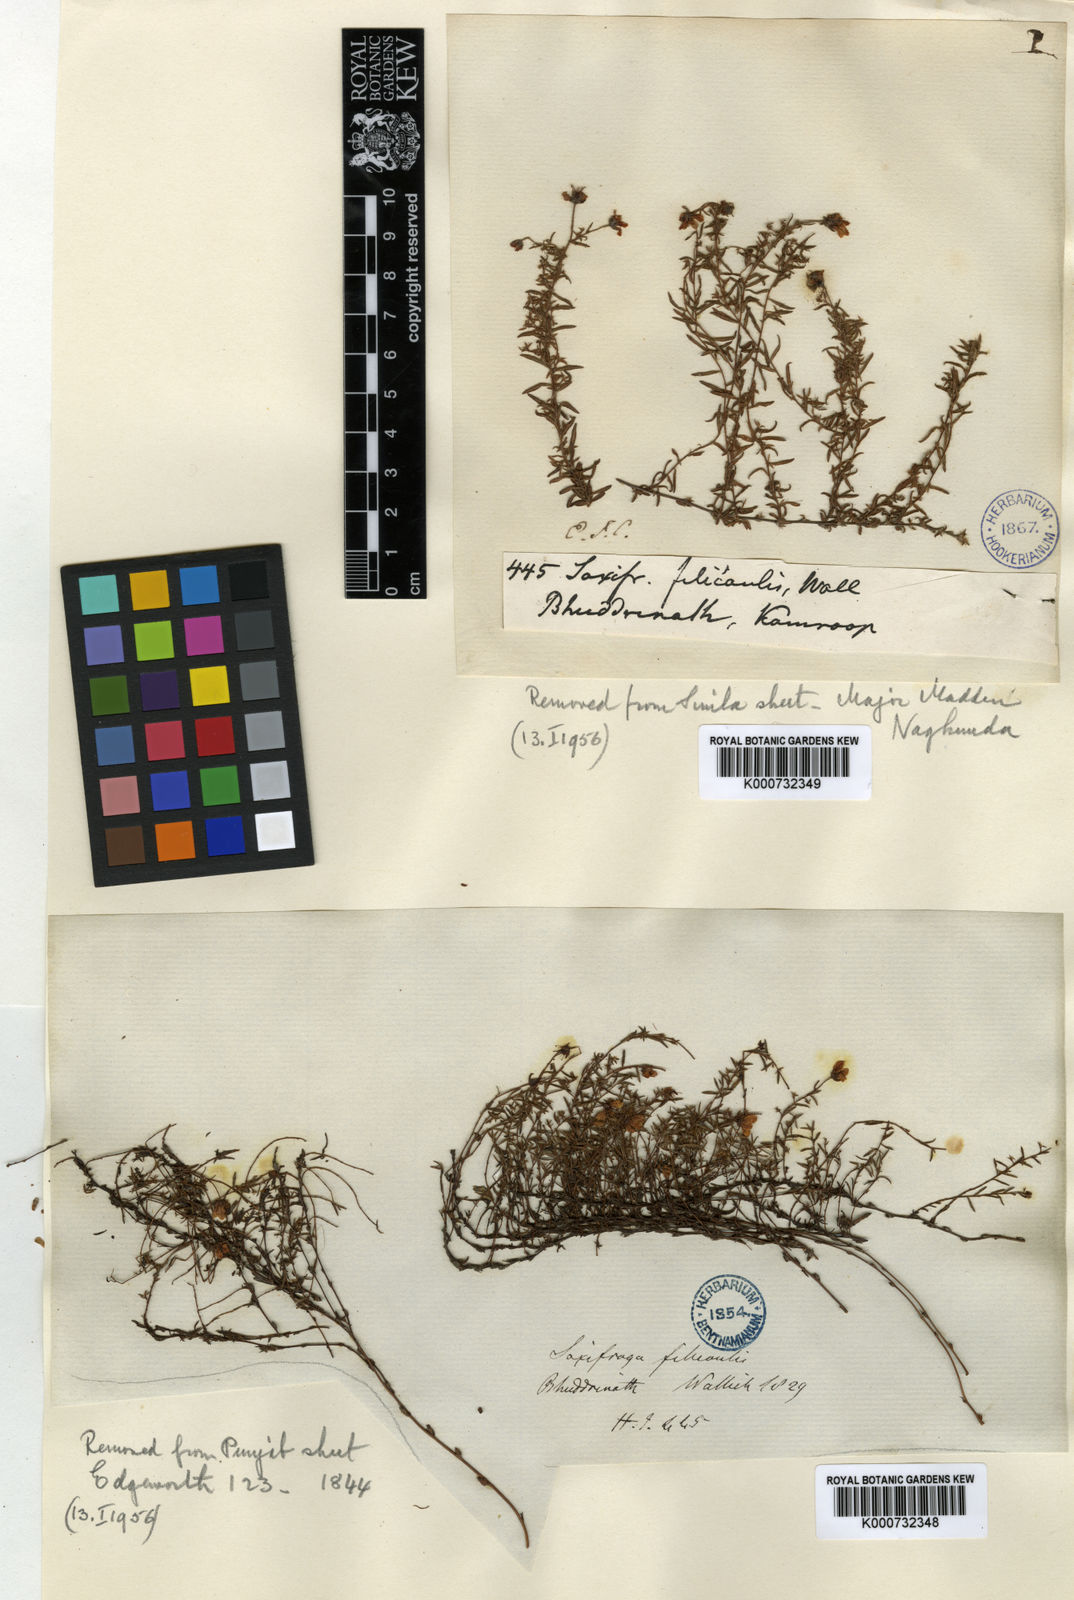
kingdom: Plantae
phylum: Tracheophyta
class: Magnoliopsida
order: Saxifragales
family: Saxifragaceae
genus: Saxifraga
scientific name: Saxifraga filicaulis
